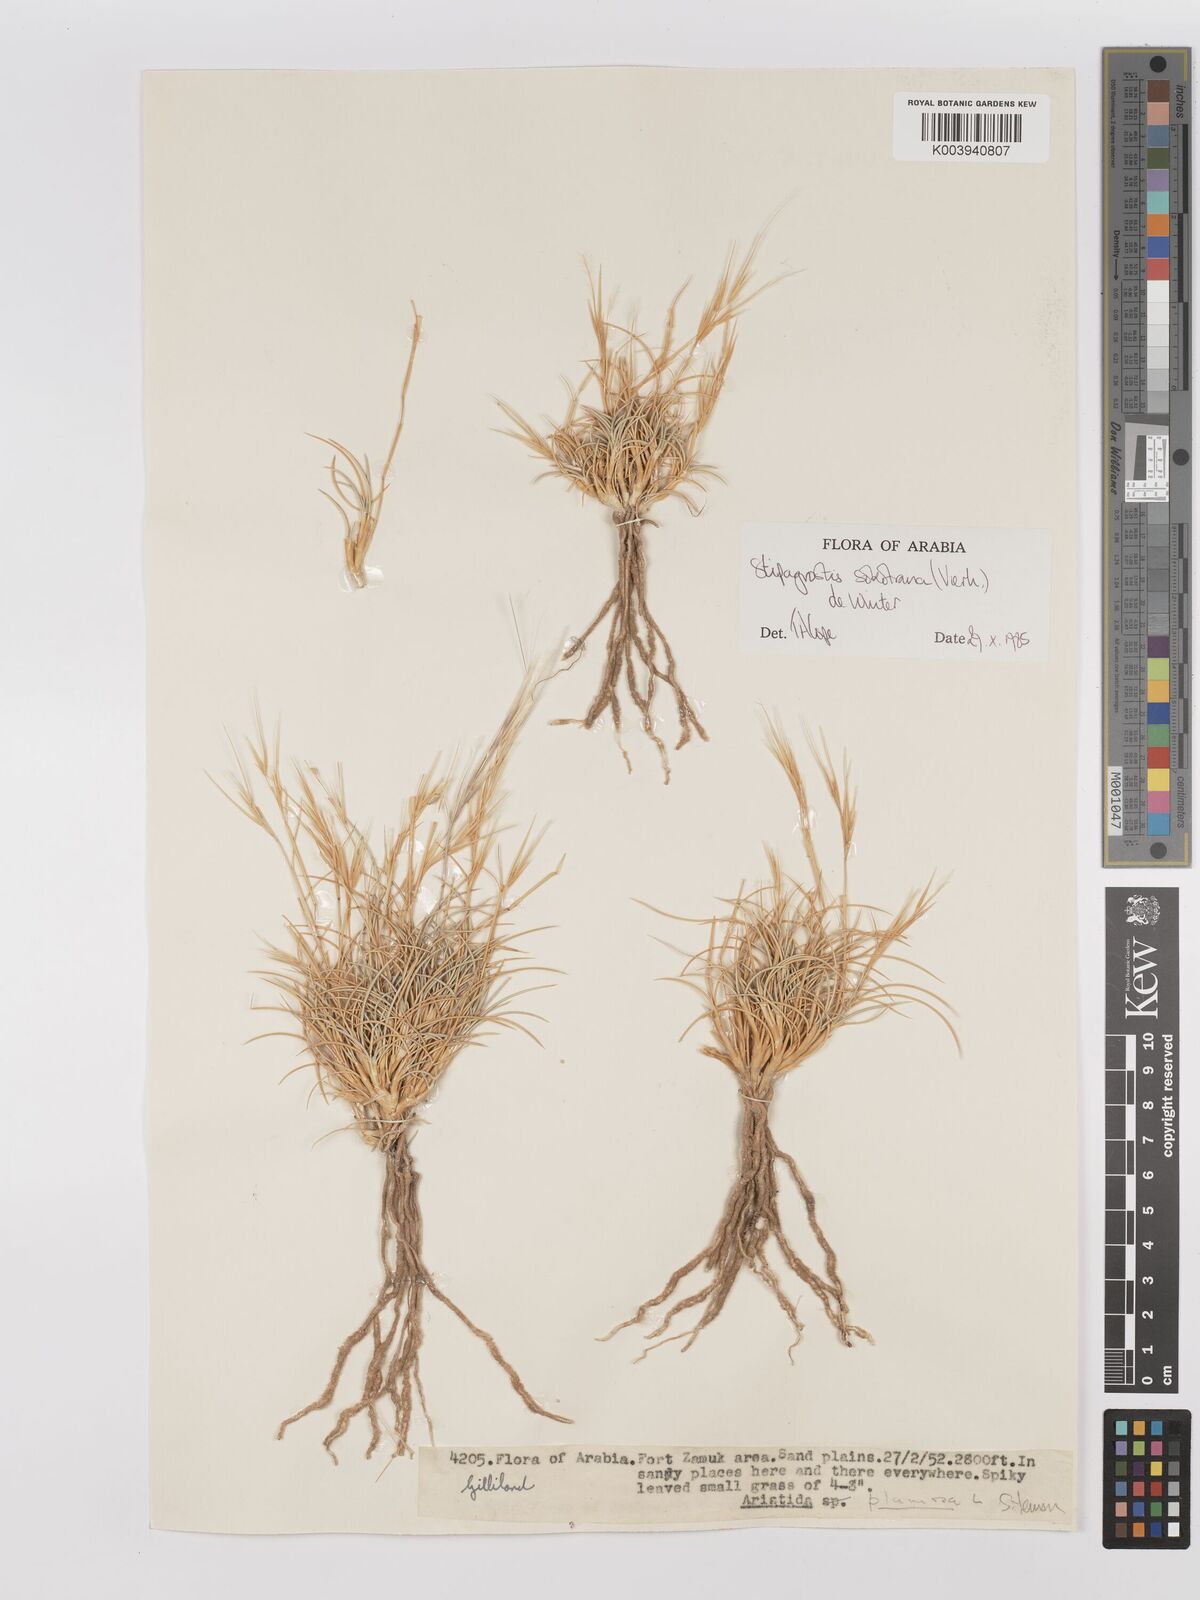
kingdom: Plantae
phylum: Tracheophyta
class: Liliopsida
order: Poales
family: Poaceae
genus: Stipagrostis
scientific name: Stipagrostis sokotrana
